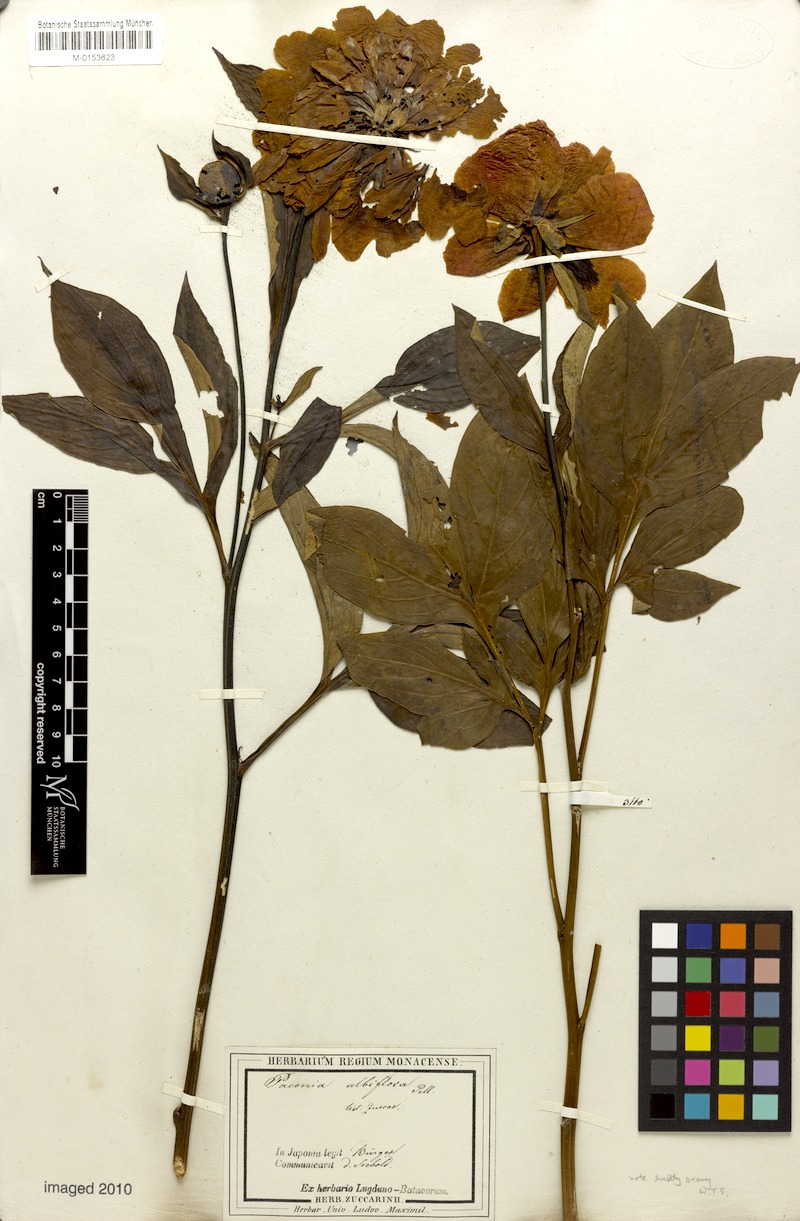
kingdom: Plantae
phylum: Tracheophyta
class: Magnoliopsida
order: Saxifragales
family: Paeoniaceae
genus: Paeonia
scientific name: Paeonia lactiflora
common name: Chinese peony
